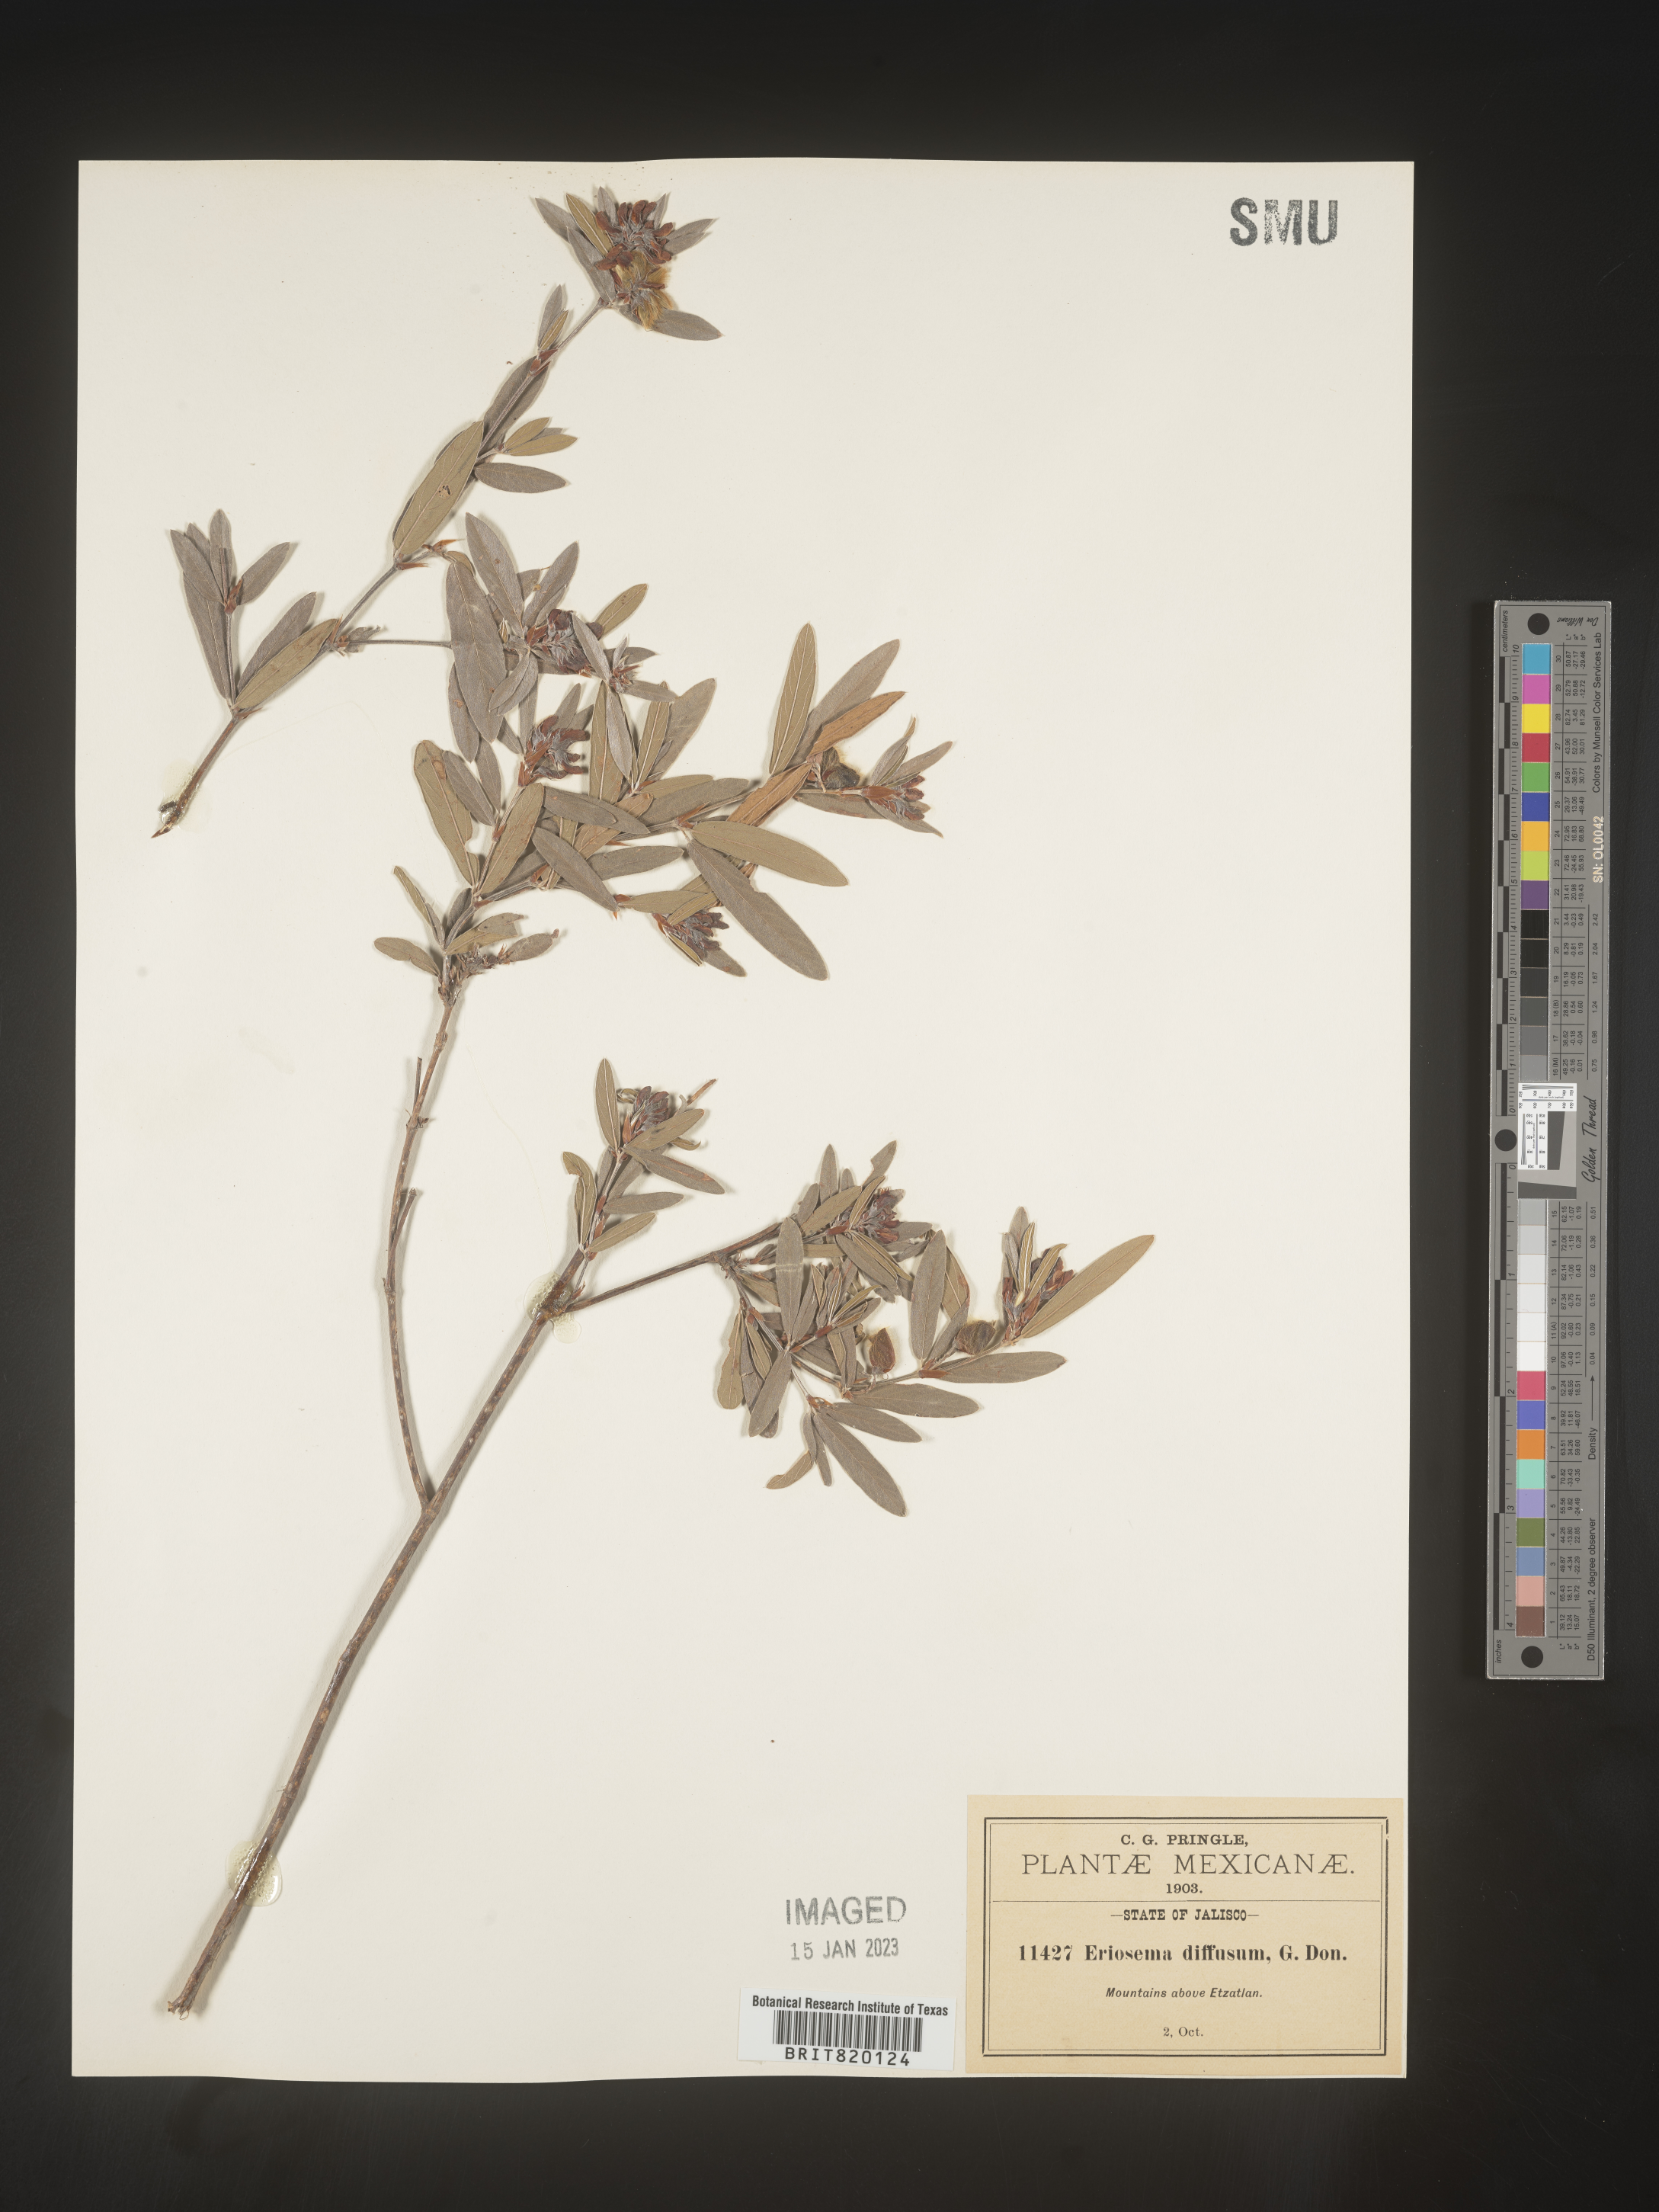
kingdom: Plantae
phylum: Tracheophyta
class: Magnoliopsida
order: Fabales
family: Fabaceae
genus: Eriosema
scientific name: Eriosema
